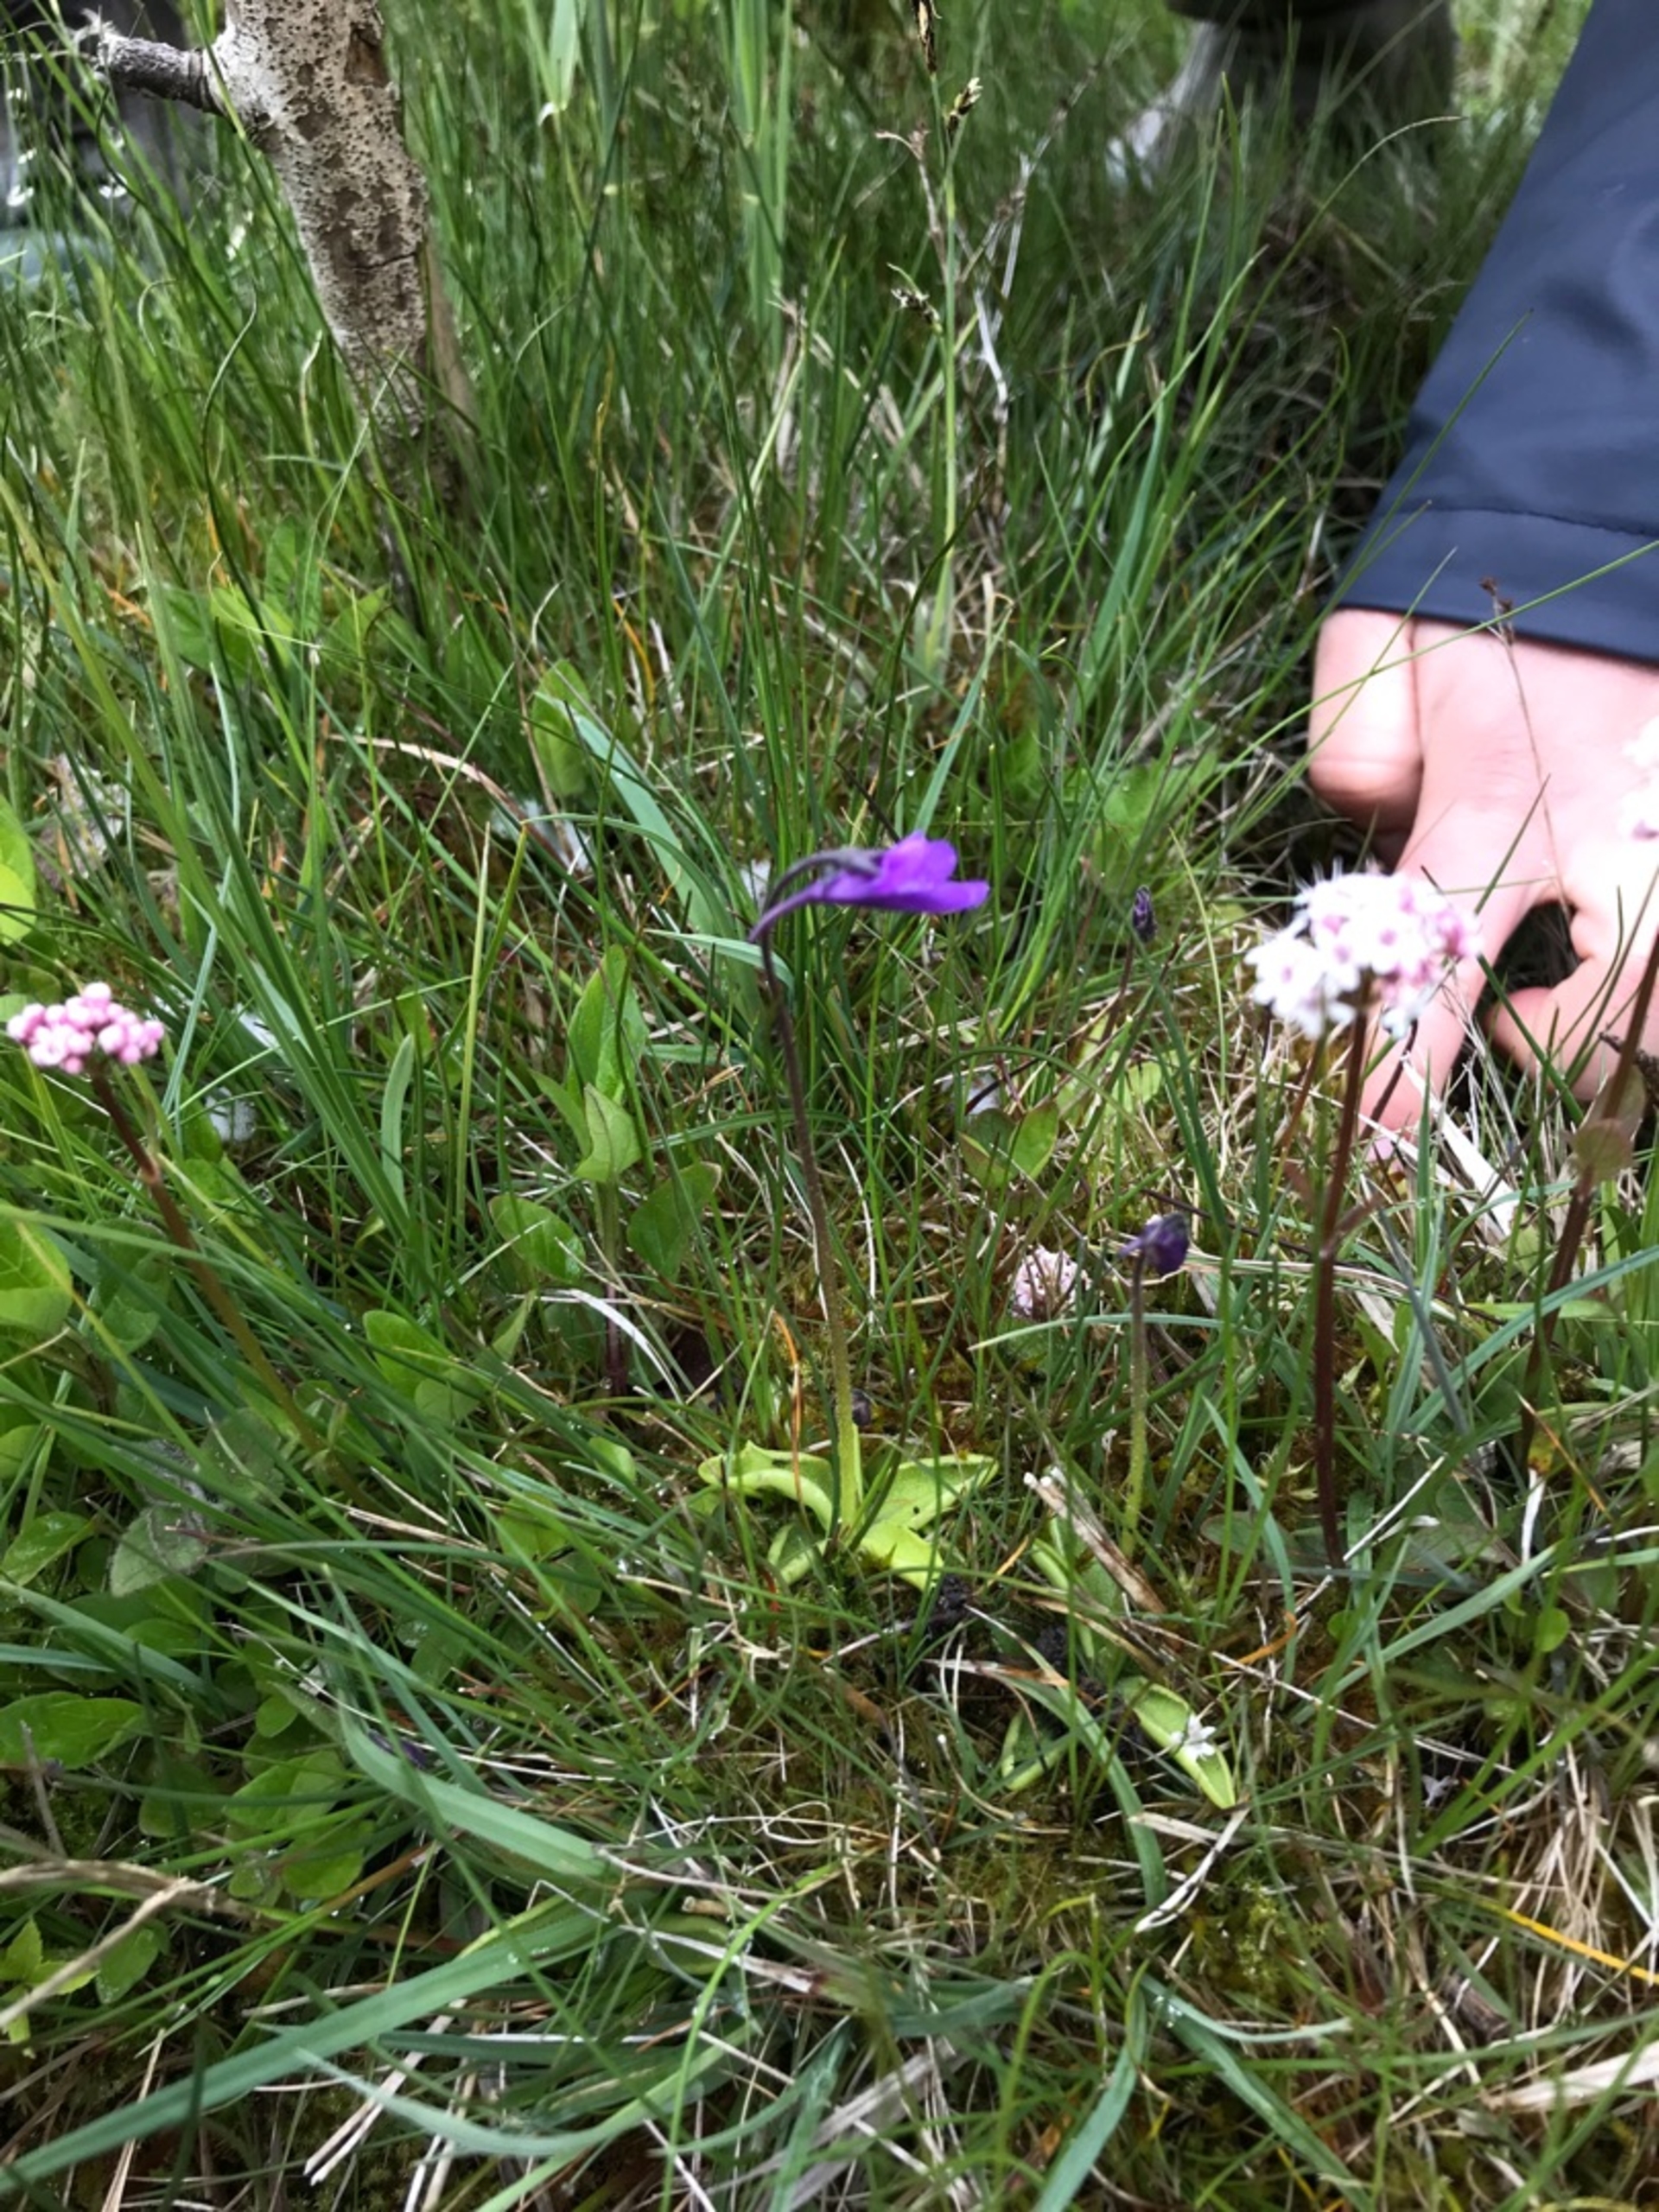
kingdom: Plantae
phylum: Tracheophyta
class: Magnoliopsida
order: Lamiales
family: Lentibulariaceae
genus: Pinguicula
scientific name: Pinguicula vulgaris
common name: Vibefedt
